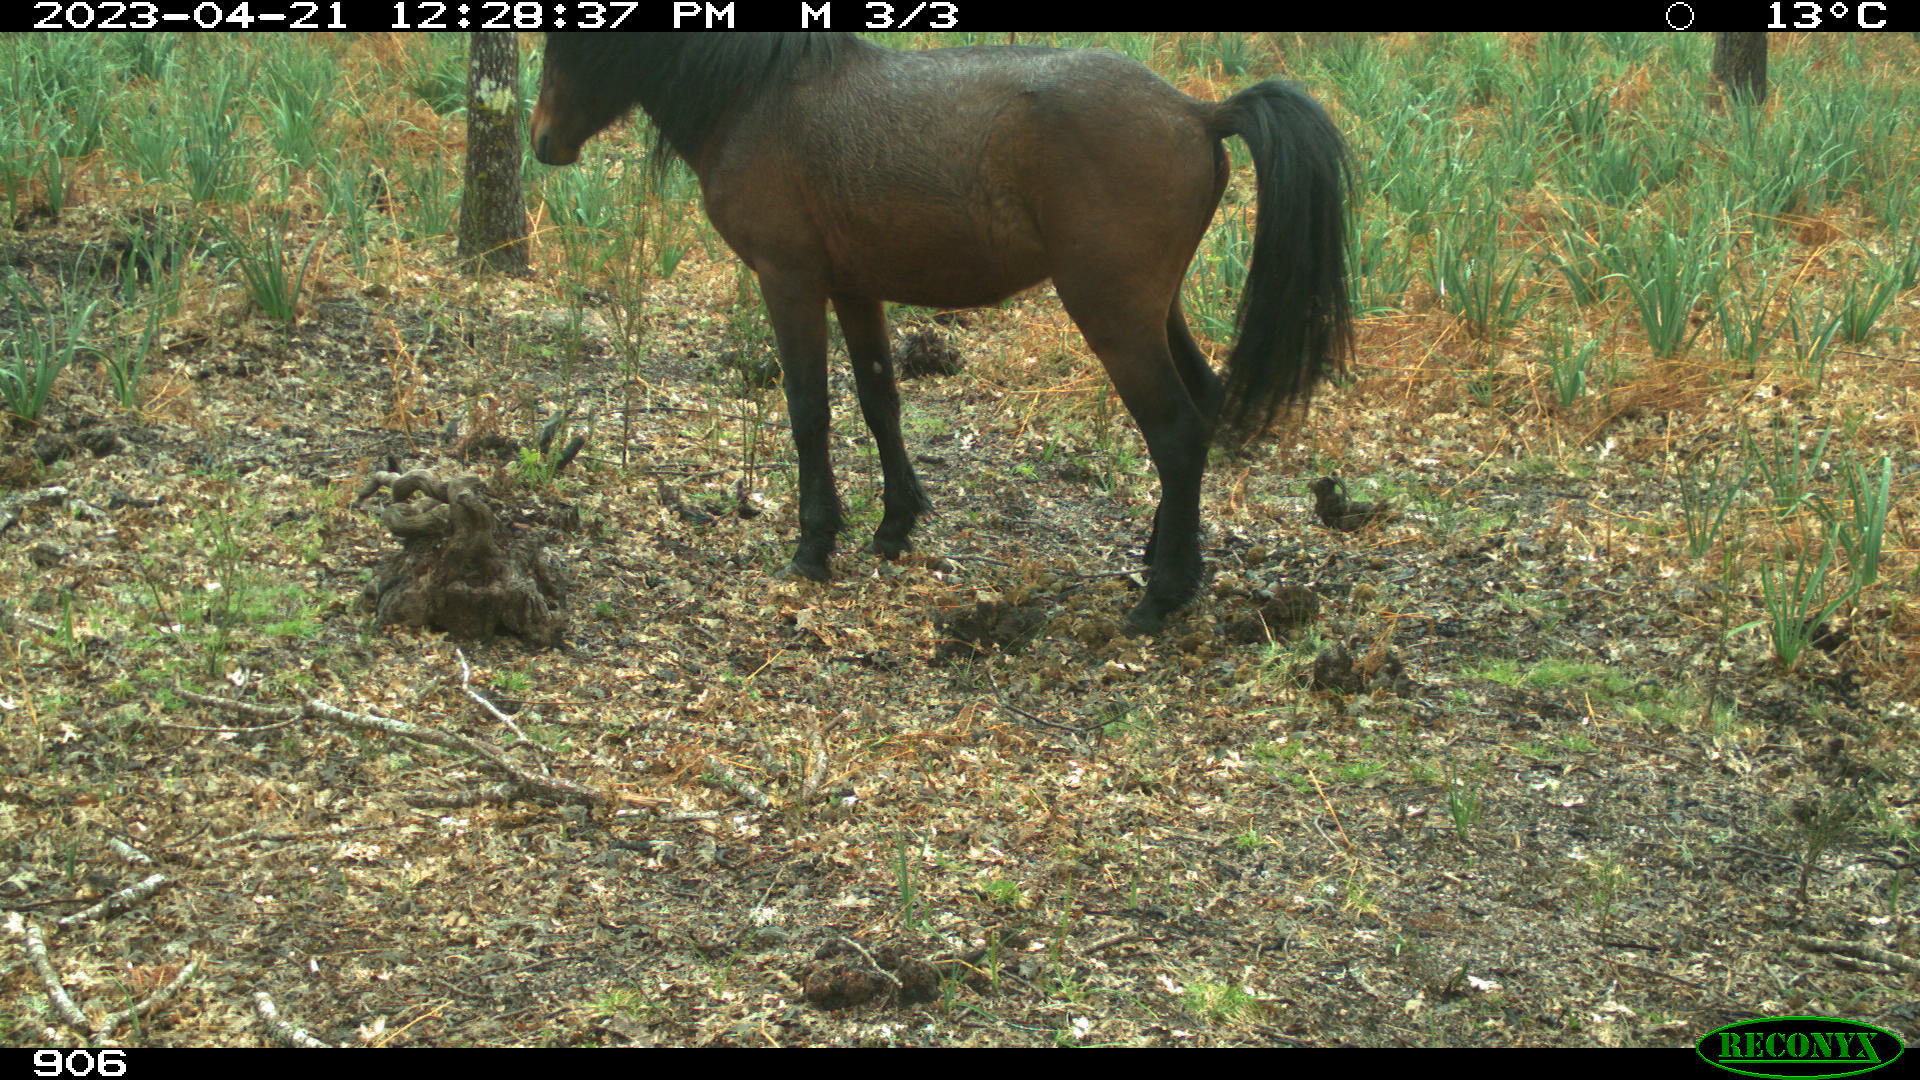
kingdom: Animalia
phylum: Chordata
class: Mammalia
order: Perissodactyla
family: Equidae
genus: Equus
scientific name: Equus caballus
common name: Horse
